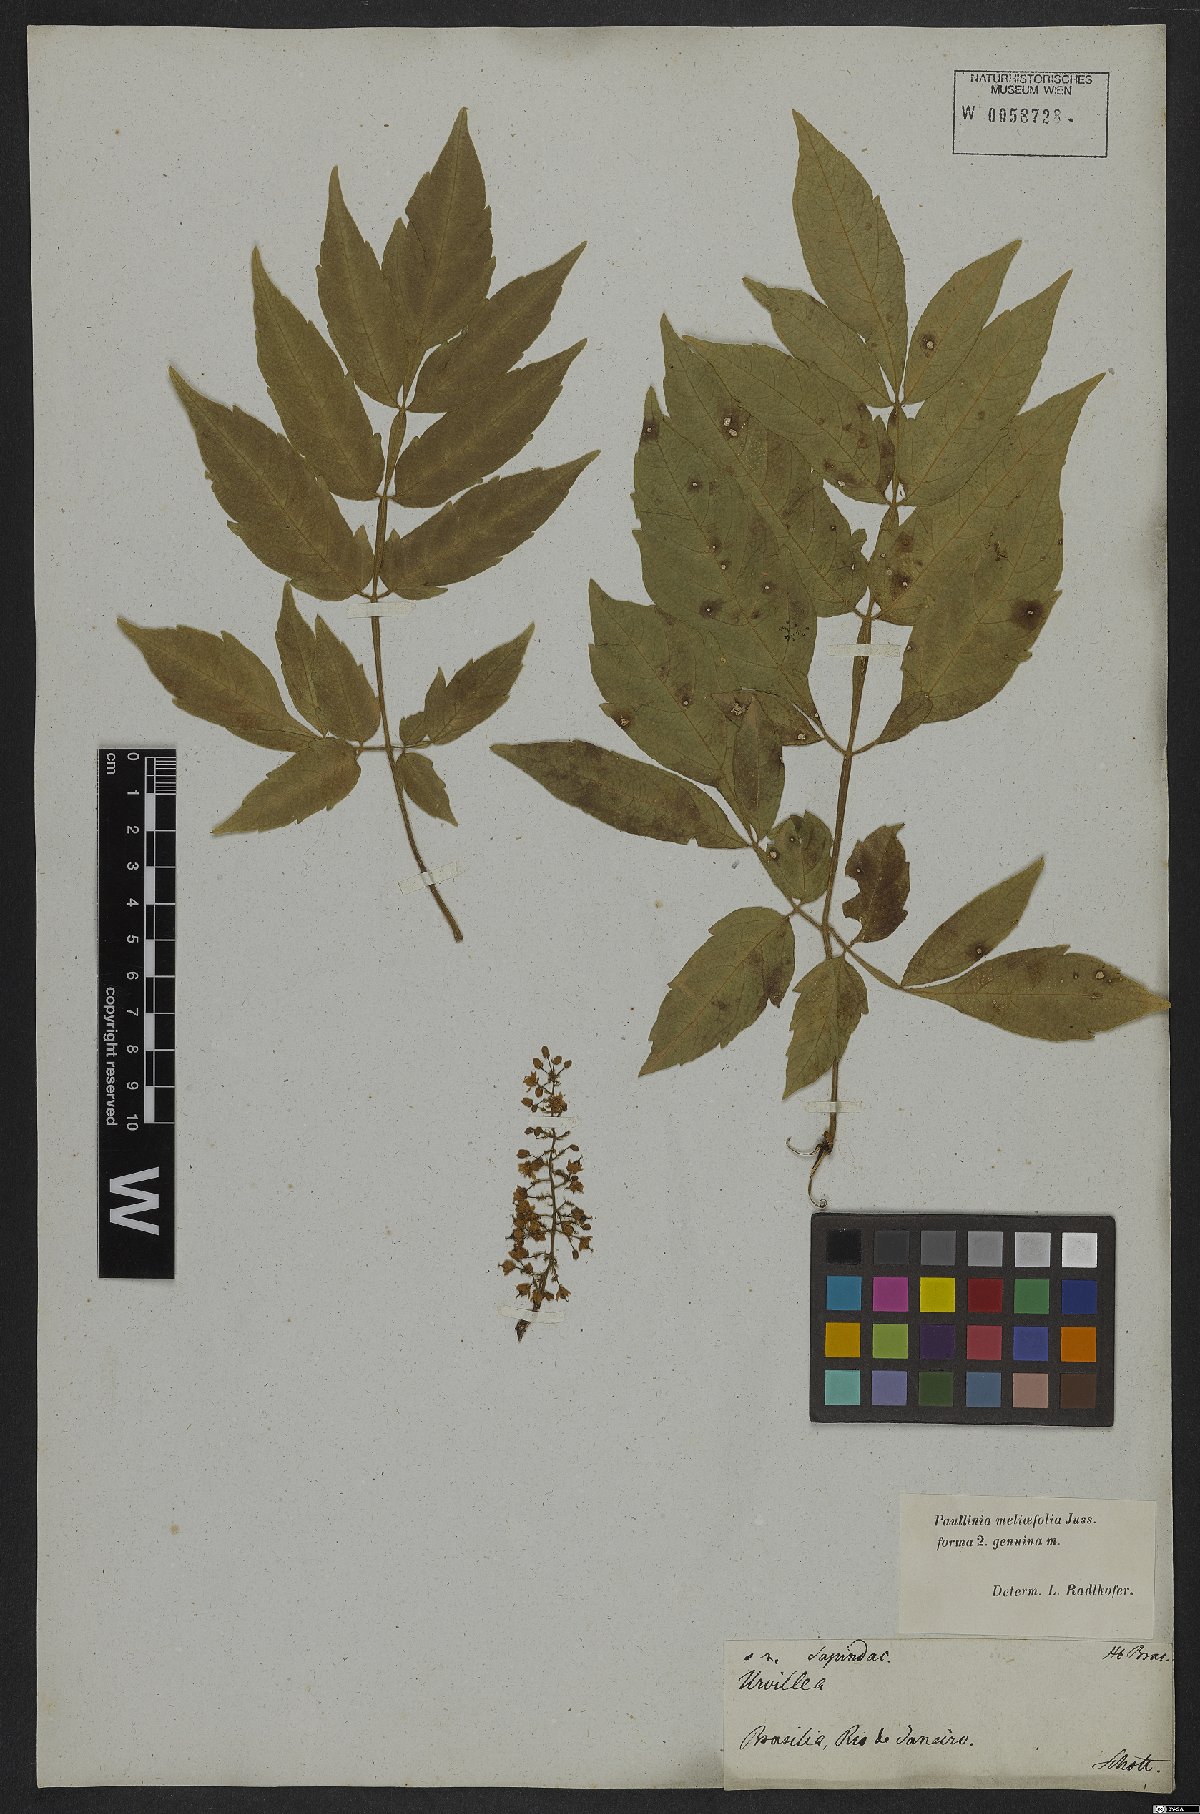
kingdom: Plantae
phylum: Tracheophyta
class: Magnoliopsida
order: Sapindales
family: Sapindaceae
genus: Paullinia
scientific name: Paullinia meliifolia
